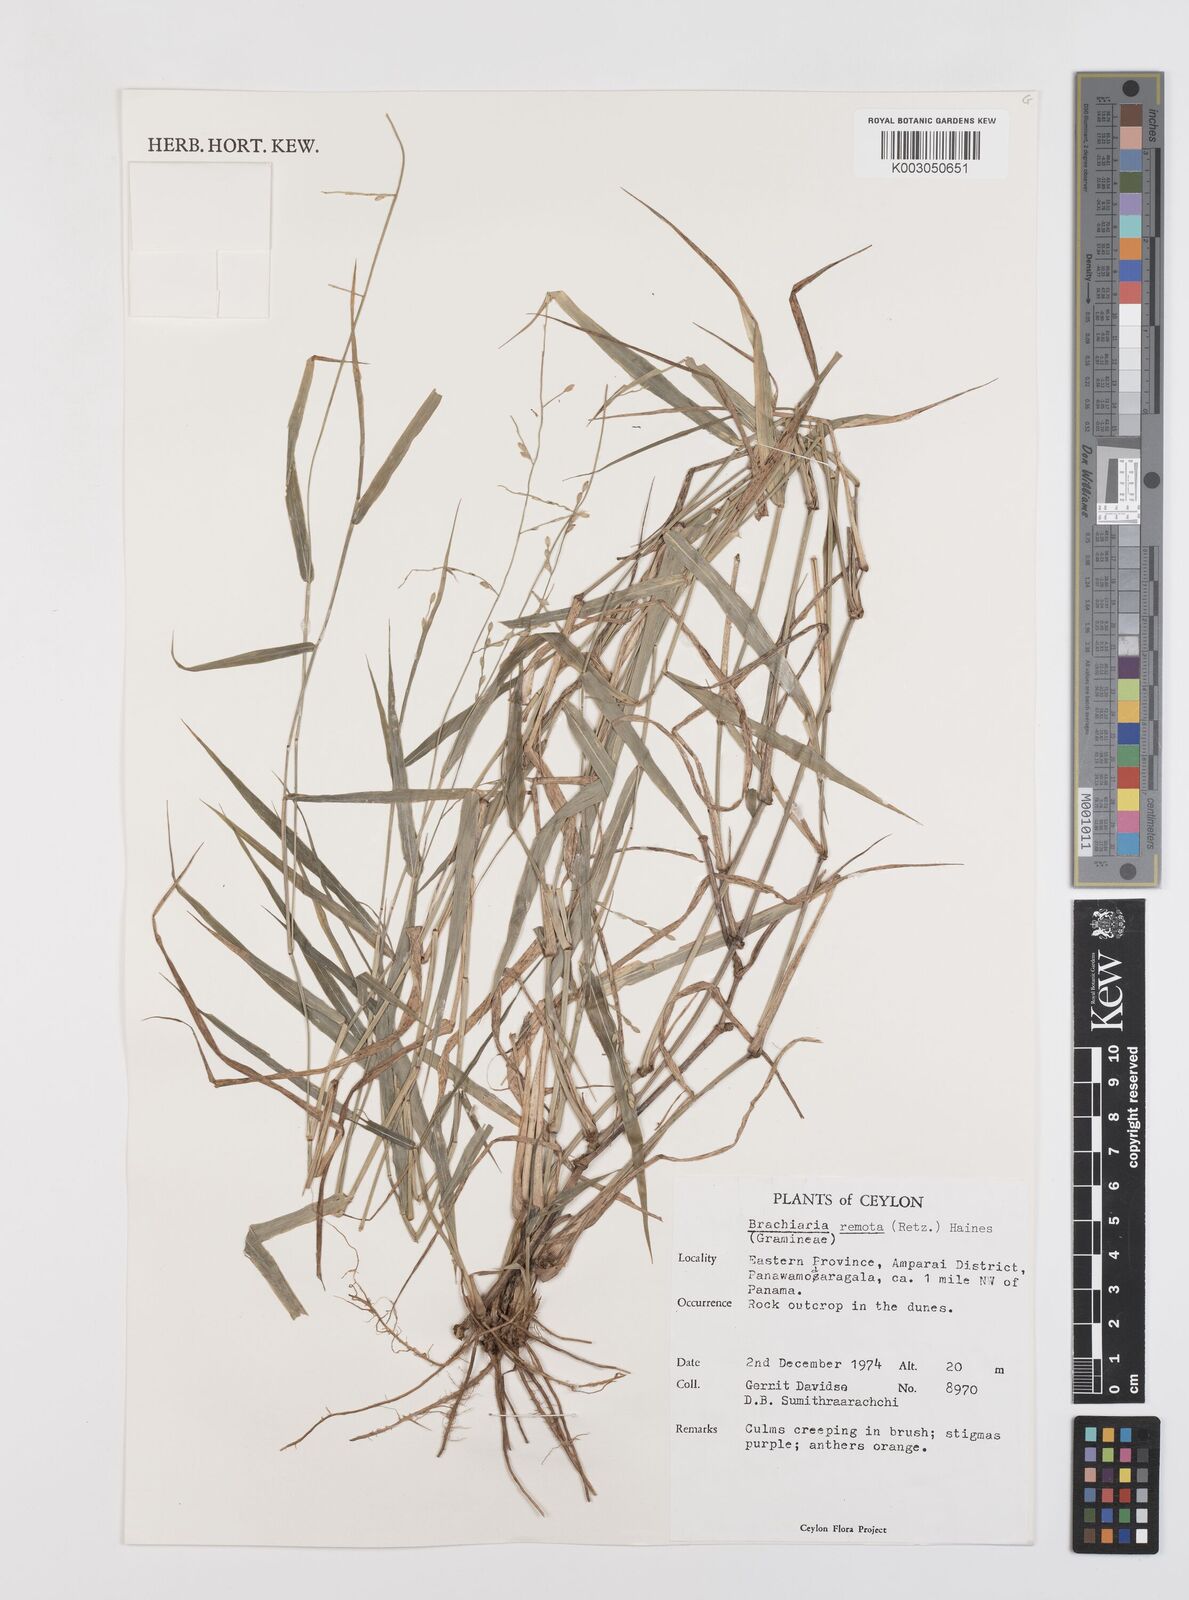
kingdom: Plantae
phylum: Tracheophyta
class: Liliopsida
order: Poales
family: Poaceae
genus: Urochloa
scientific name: Urochloa Brachiaria remota
